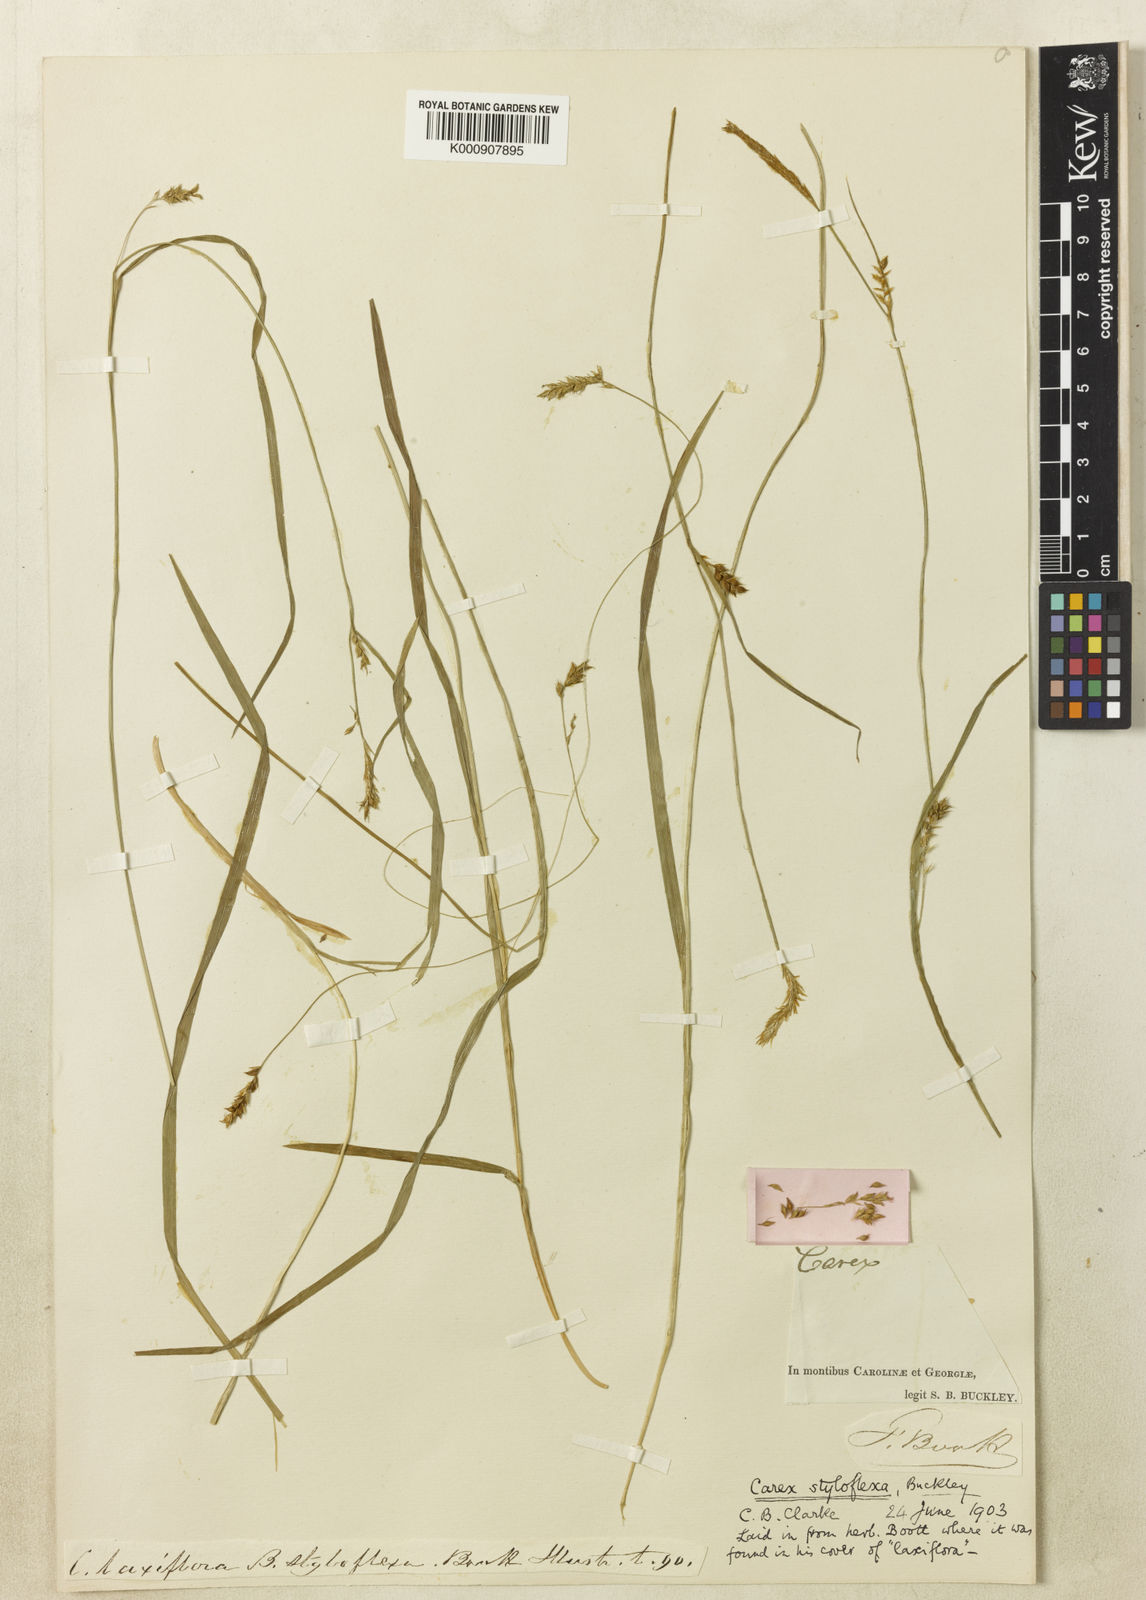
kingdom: Plantae
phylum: Tracheophyta
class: Liliopsida
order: Poales
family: Cyperaceae
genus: Carex
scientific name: Carex styloflexa
